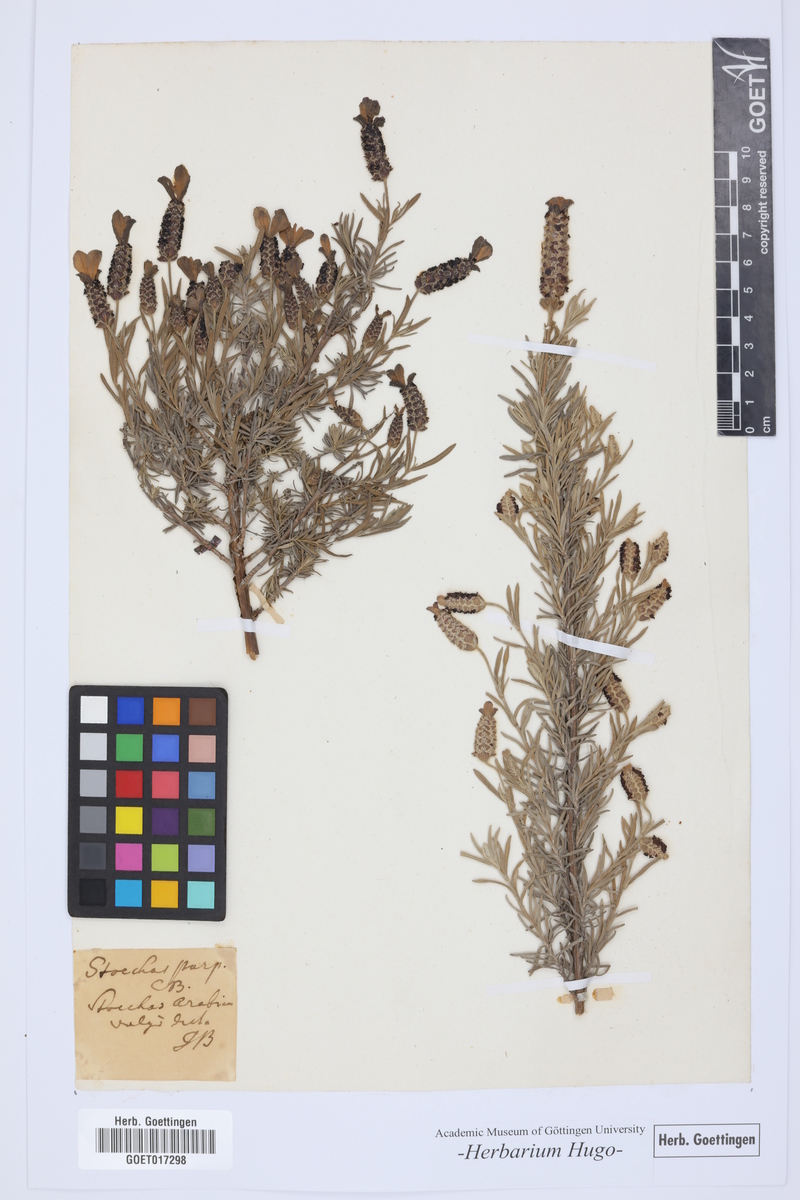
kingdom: Plantae
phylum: Tracheophyta
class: Magnoliopsida
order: Lamiales
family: Lamiaceae
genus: Lavandula
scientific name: Lavandula stoechas
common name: French lavender
